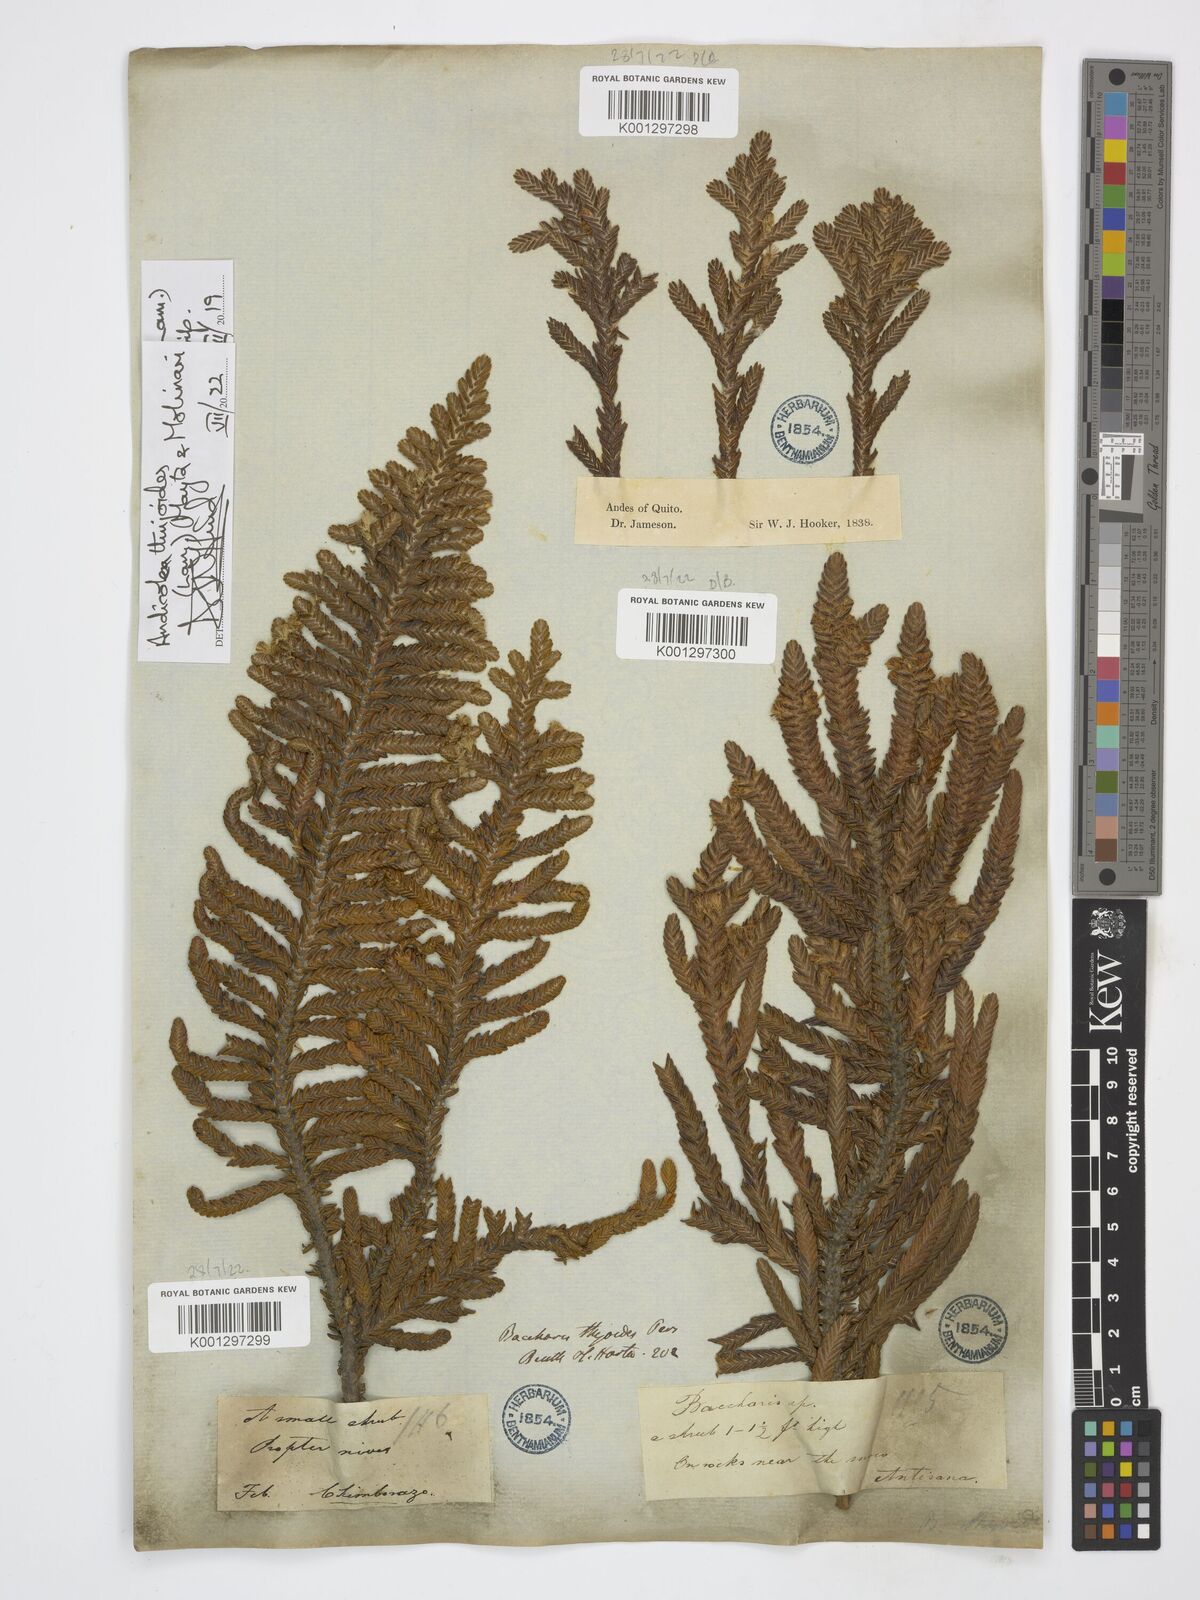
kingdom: Plantae
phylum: Tracheophyta
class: Magnoliopsida
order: Asterales
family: Asteraceae
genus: Andicolea
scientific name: Andicolea thuyoides
